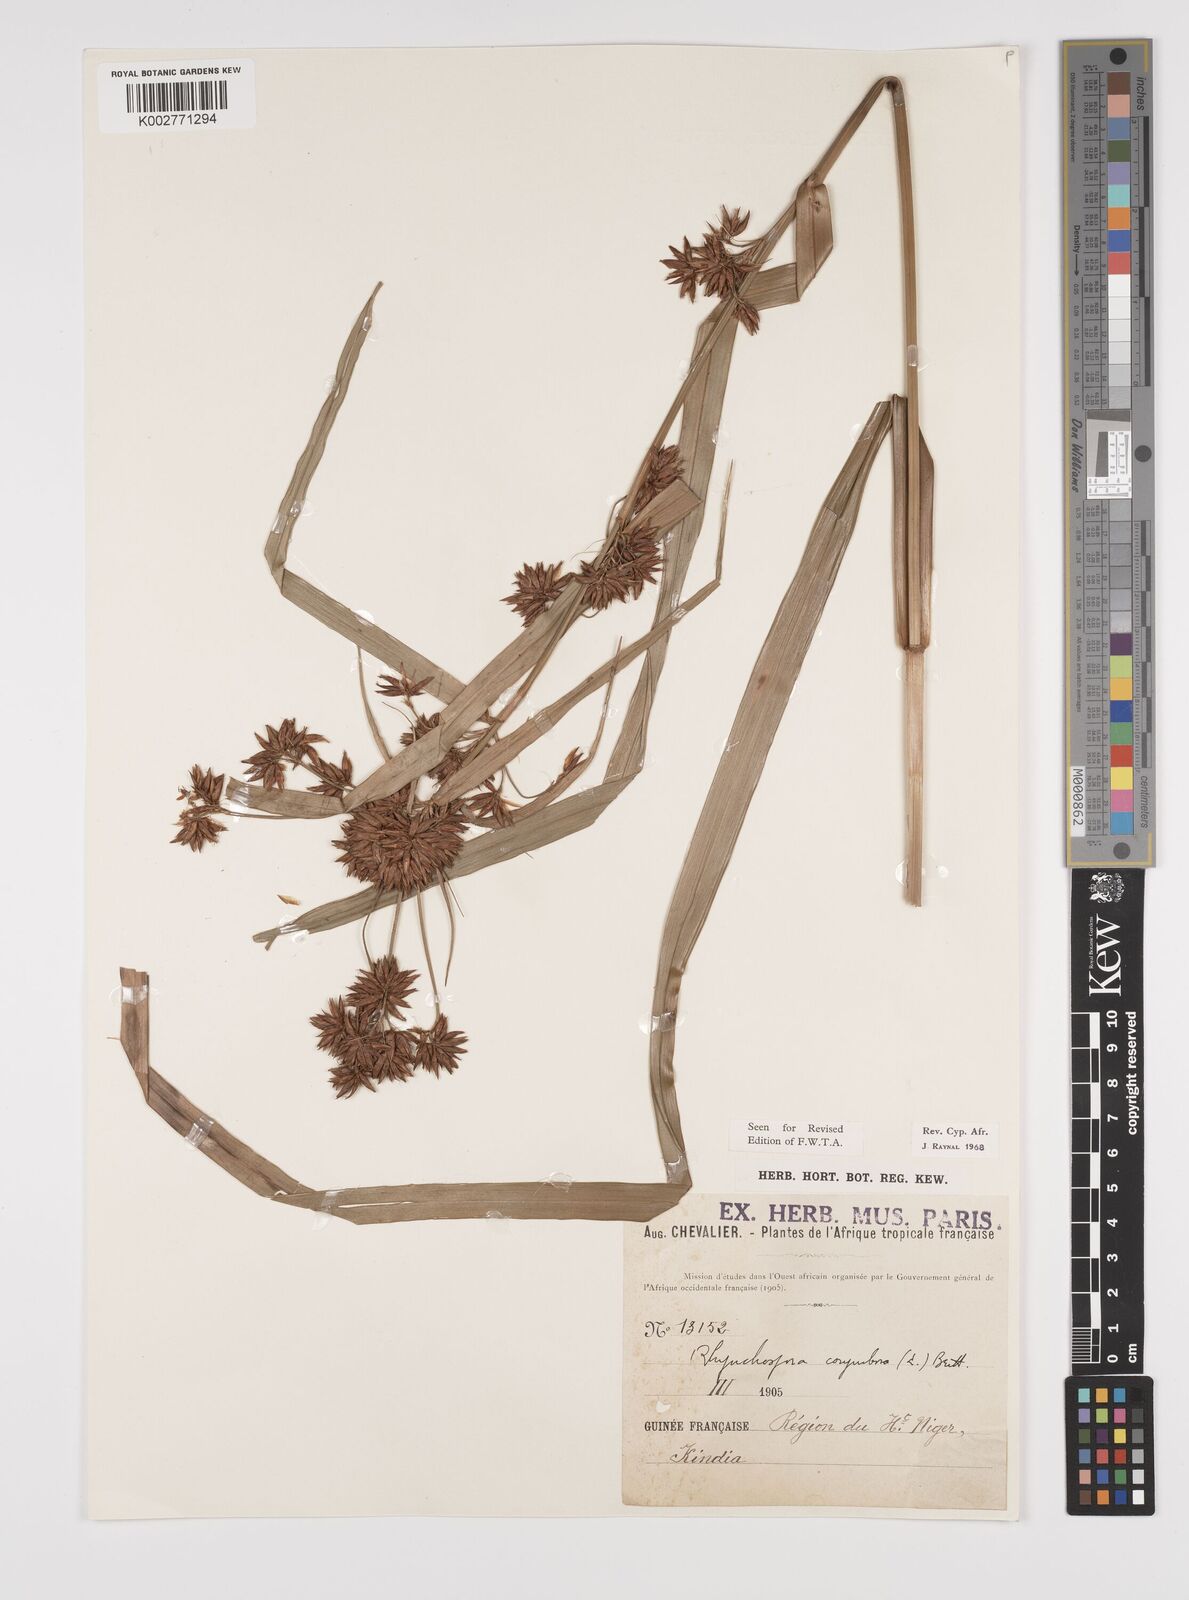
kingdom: Plantae
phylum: Tracheophyta
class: Liliopsida
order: Poales
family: Cyperaceae
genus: Rhynchospora
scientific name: Rhynchospora corymbosa
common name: Golden beak sedge
